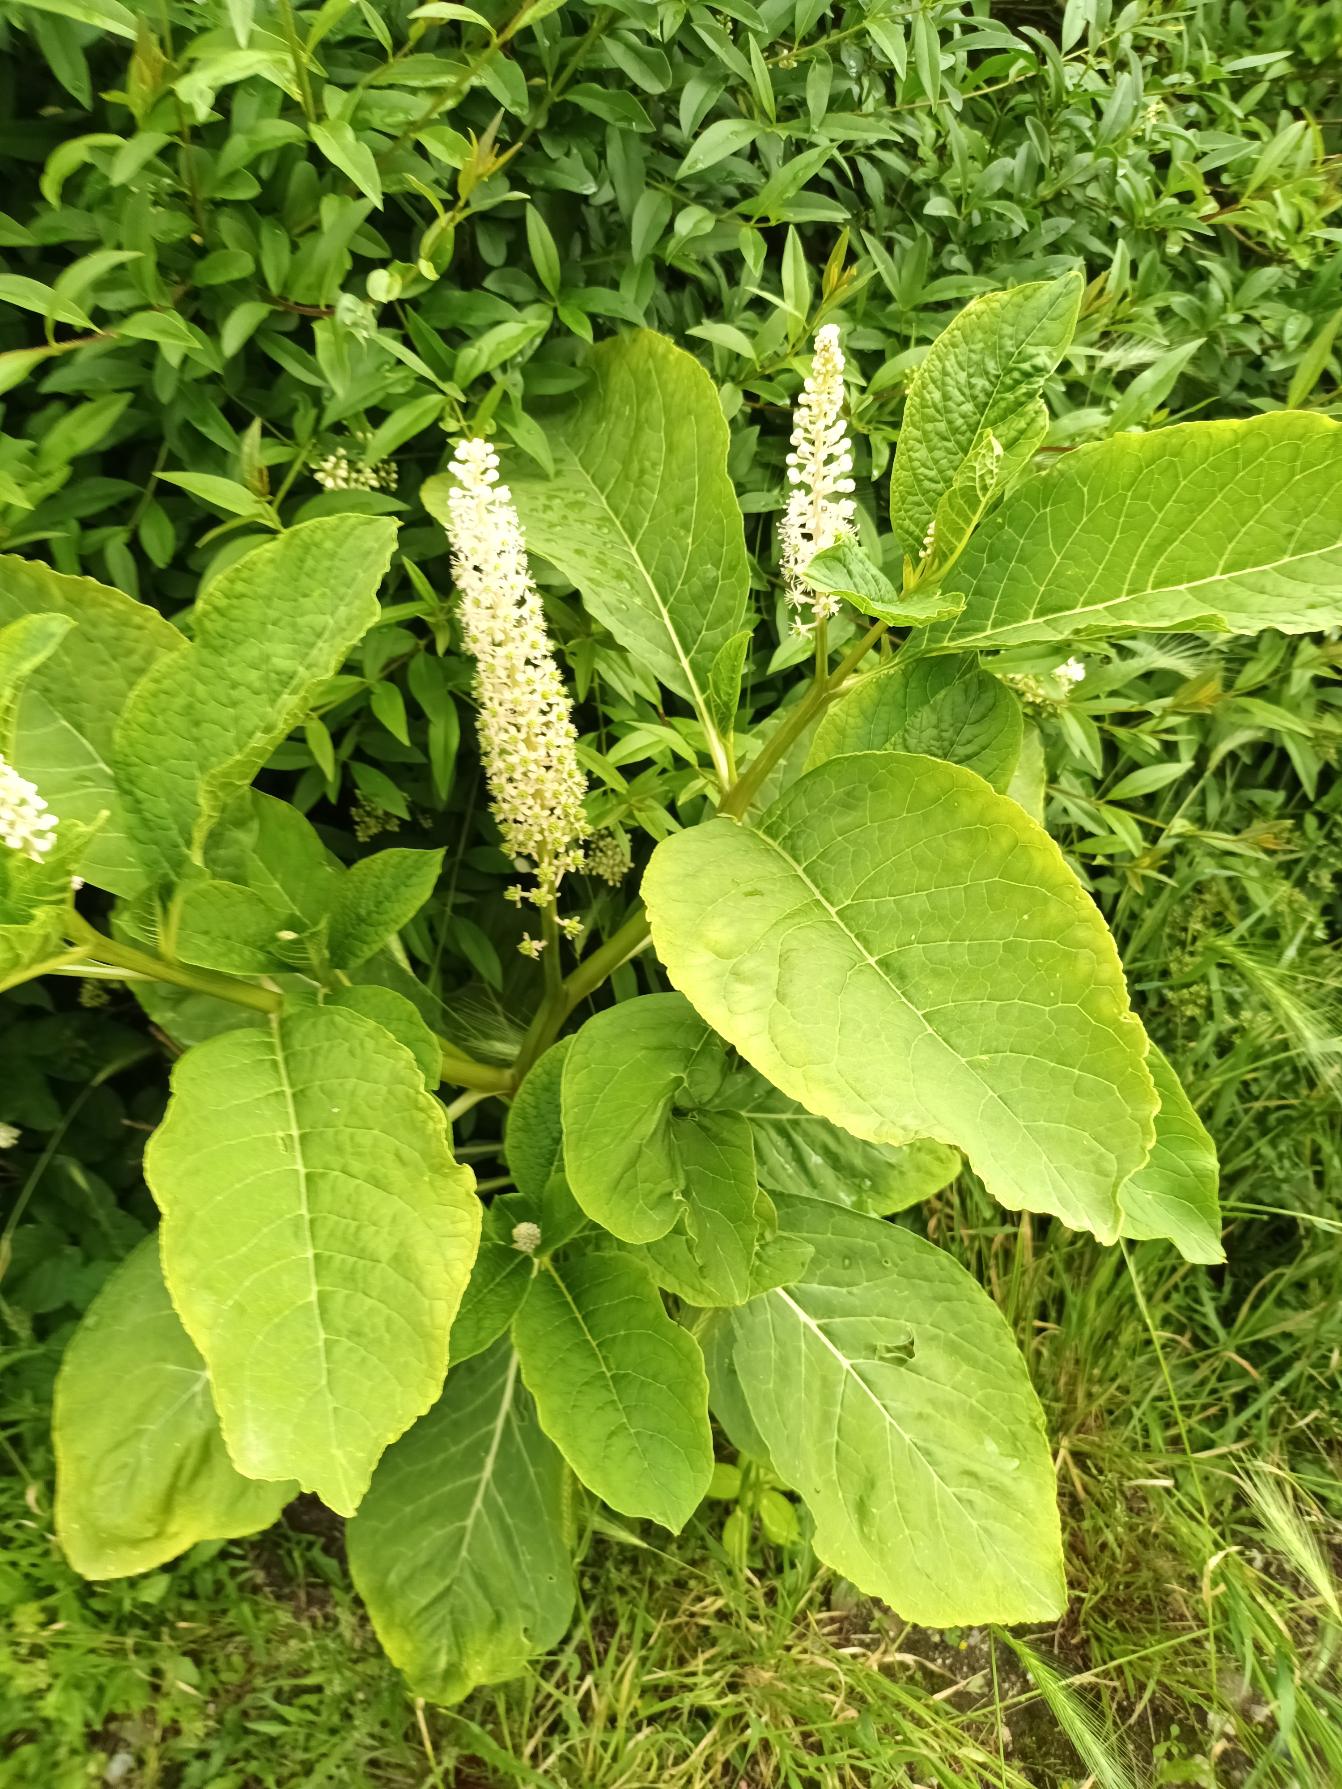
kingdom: Plantae
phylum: Tracheophyta
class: Magnoliopsida
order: Caryophyllales
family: Phytolaccaceae
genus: Phytolacca
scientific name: Phytolacca acinosa
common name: Asiatisk kermesbær
